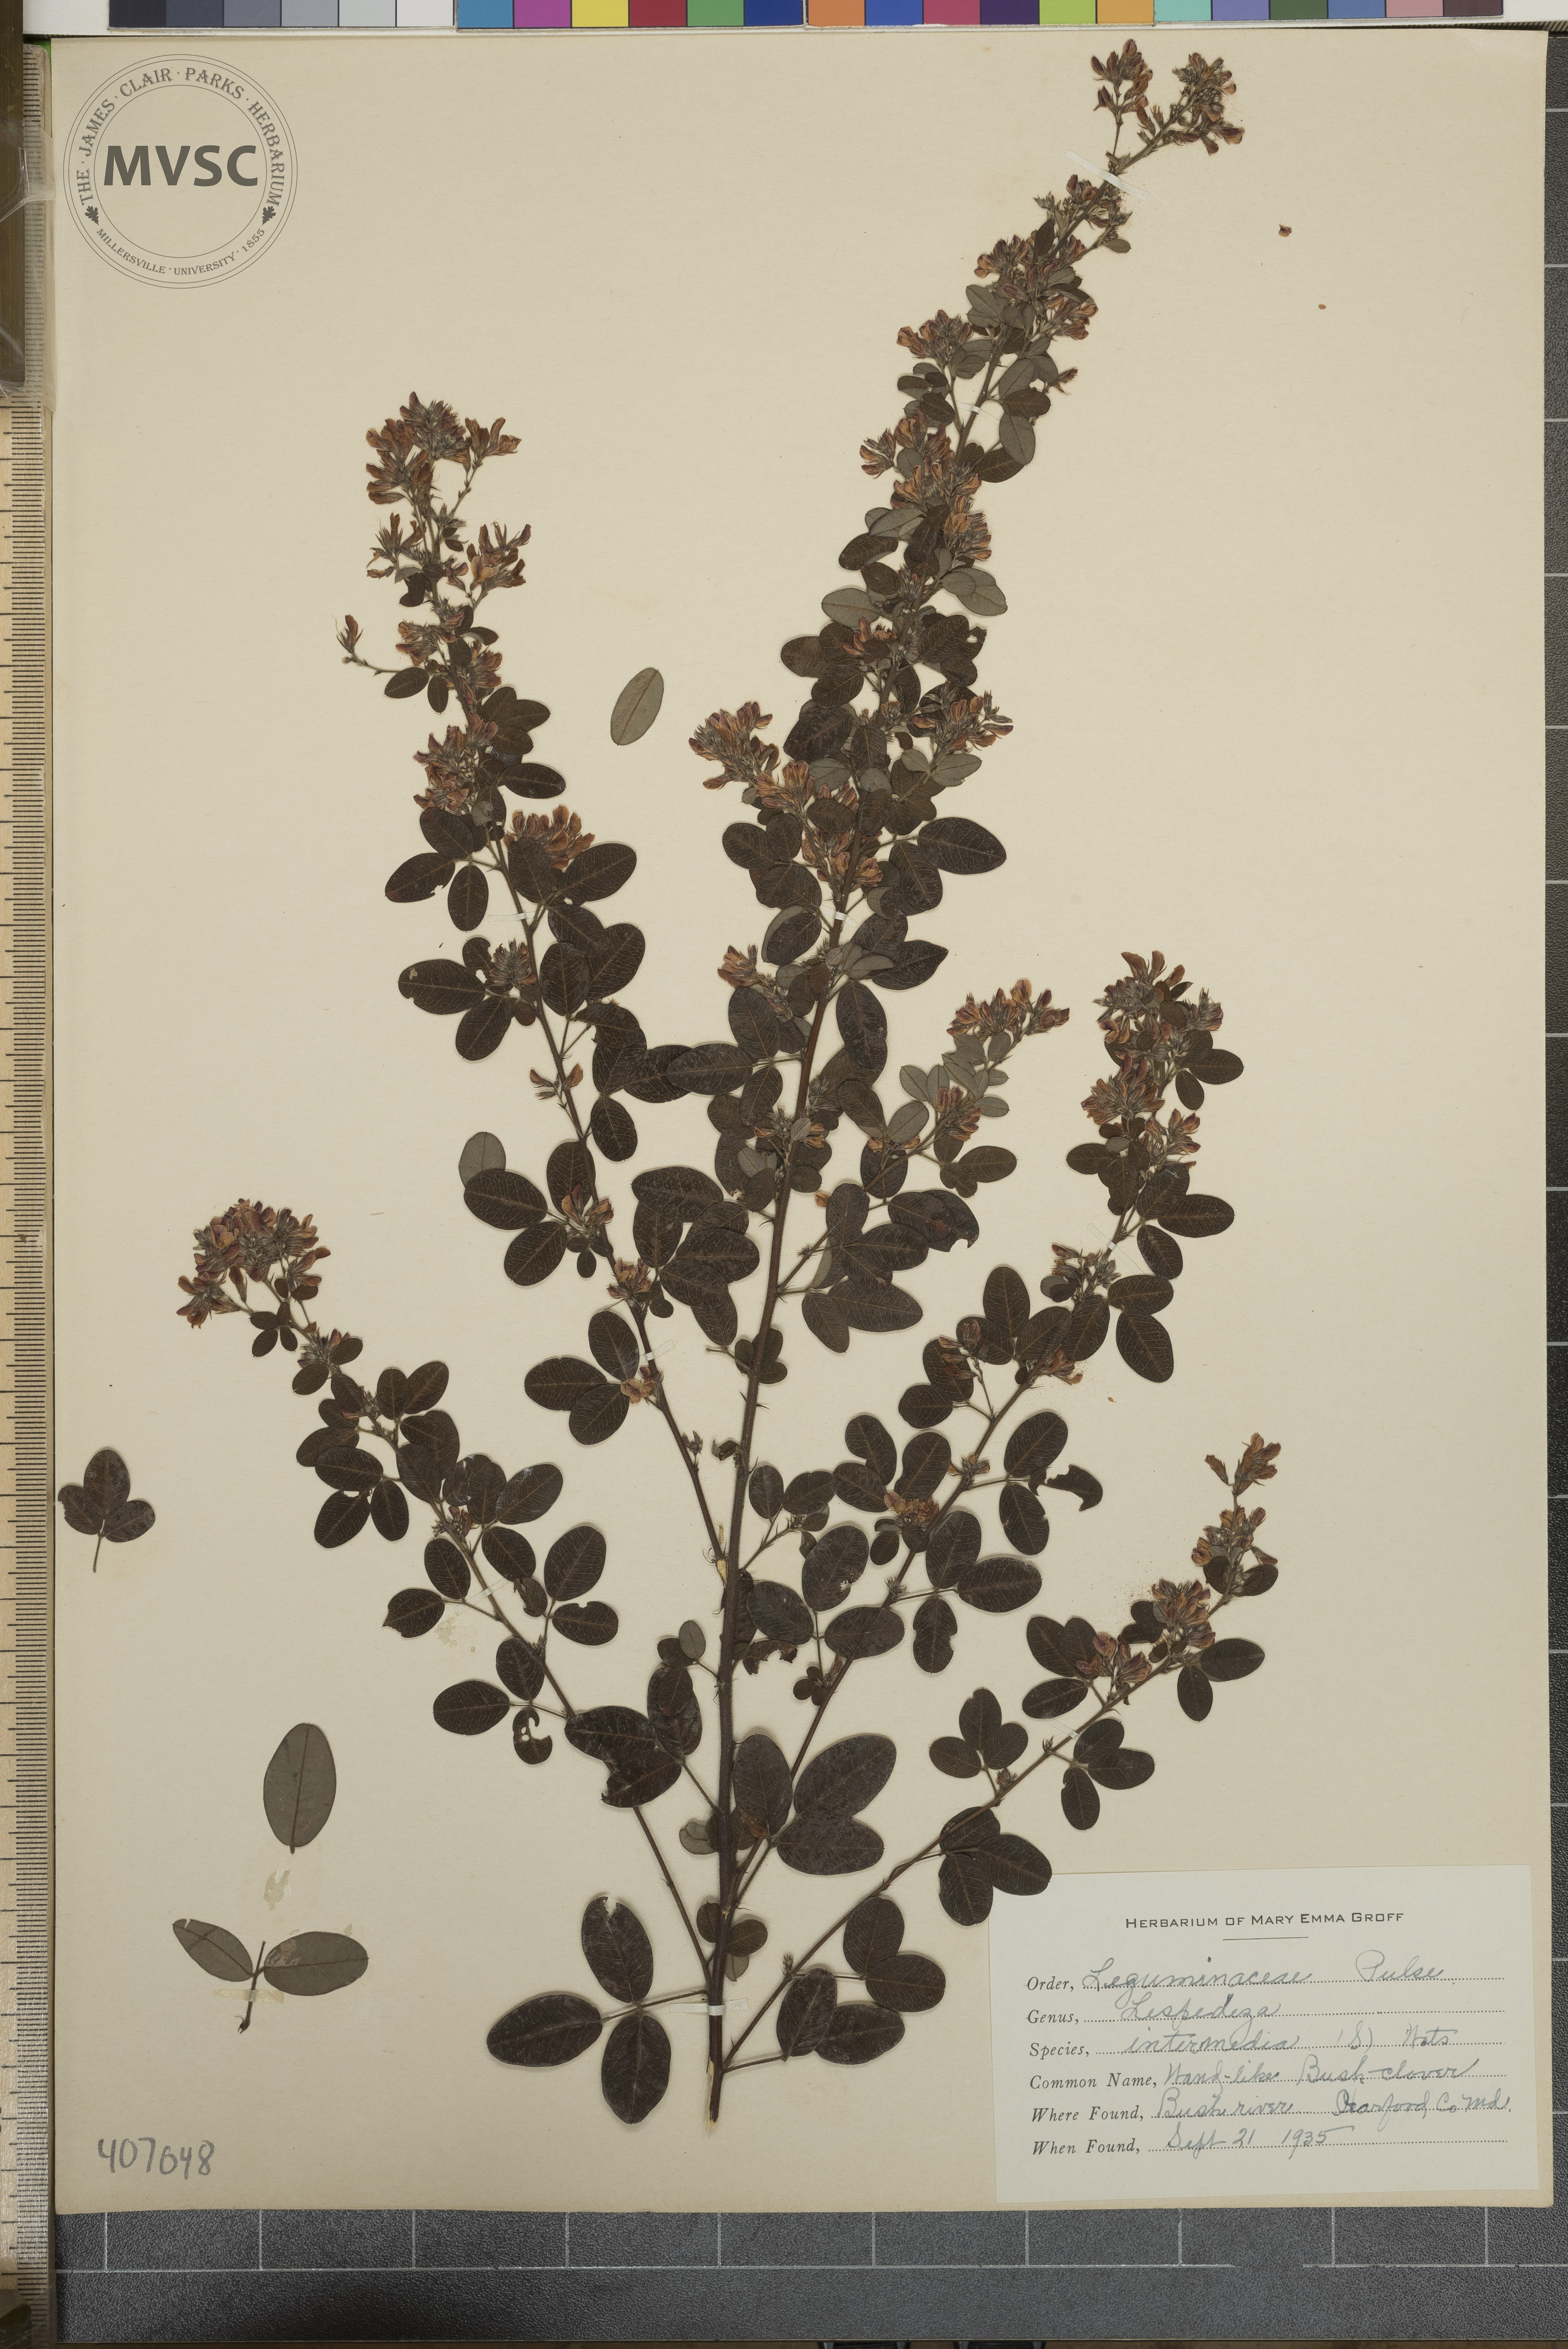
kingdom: Plantae
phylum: Tracheophyta
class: Magnoliopsida
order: Fabales
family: Fabaceae
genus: Lespedeza
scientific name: Lespedeza
